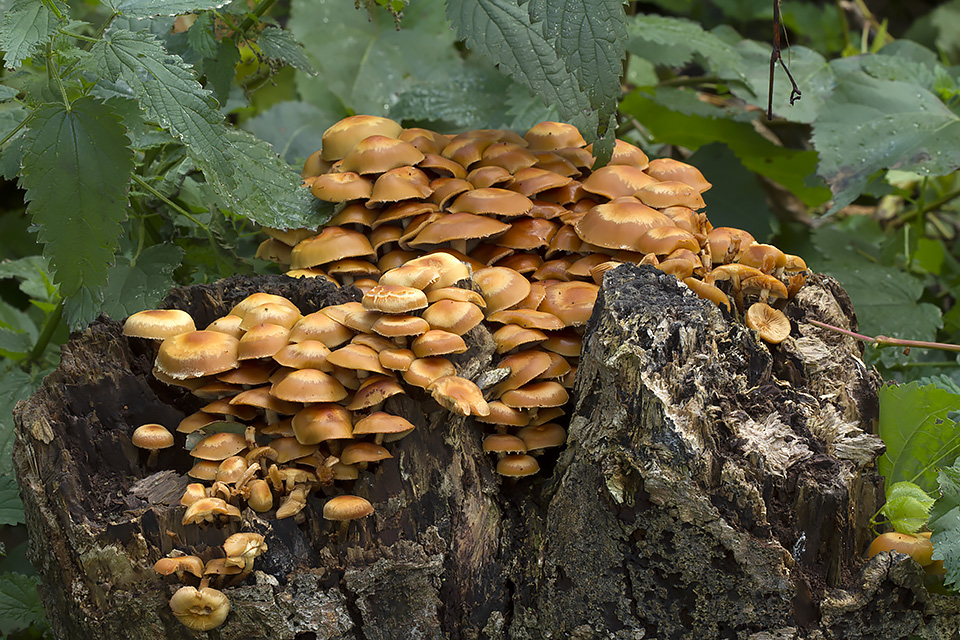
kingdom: Fungi
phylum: Basidiomycota
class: Agaricomycetes
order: Agaricales
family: Strophariaceae
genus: Kuehneromyces
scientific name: Kuehneromyces mutabilis
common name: foranderlig skælhat
